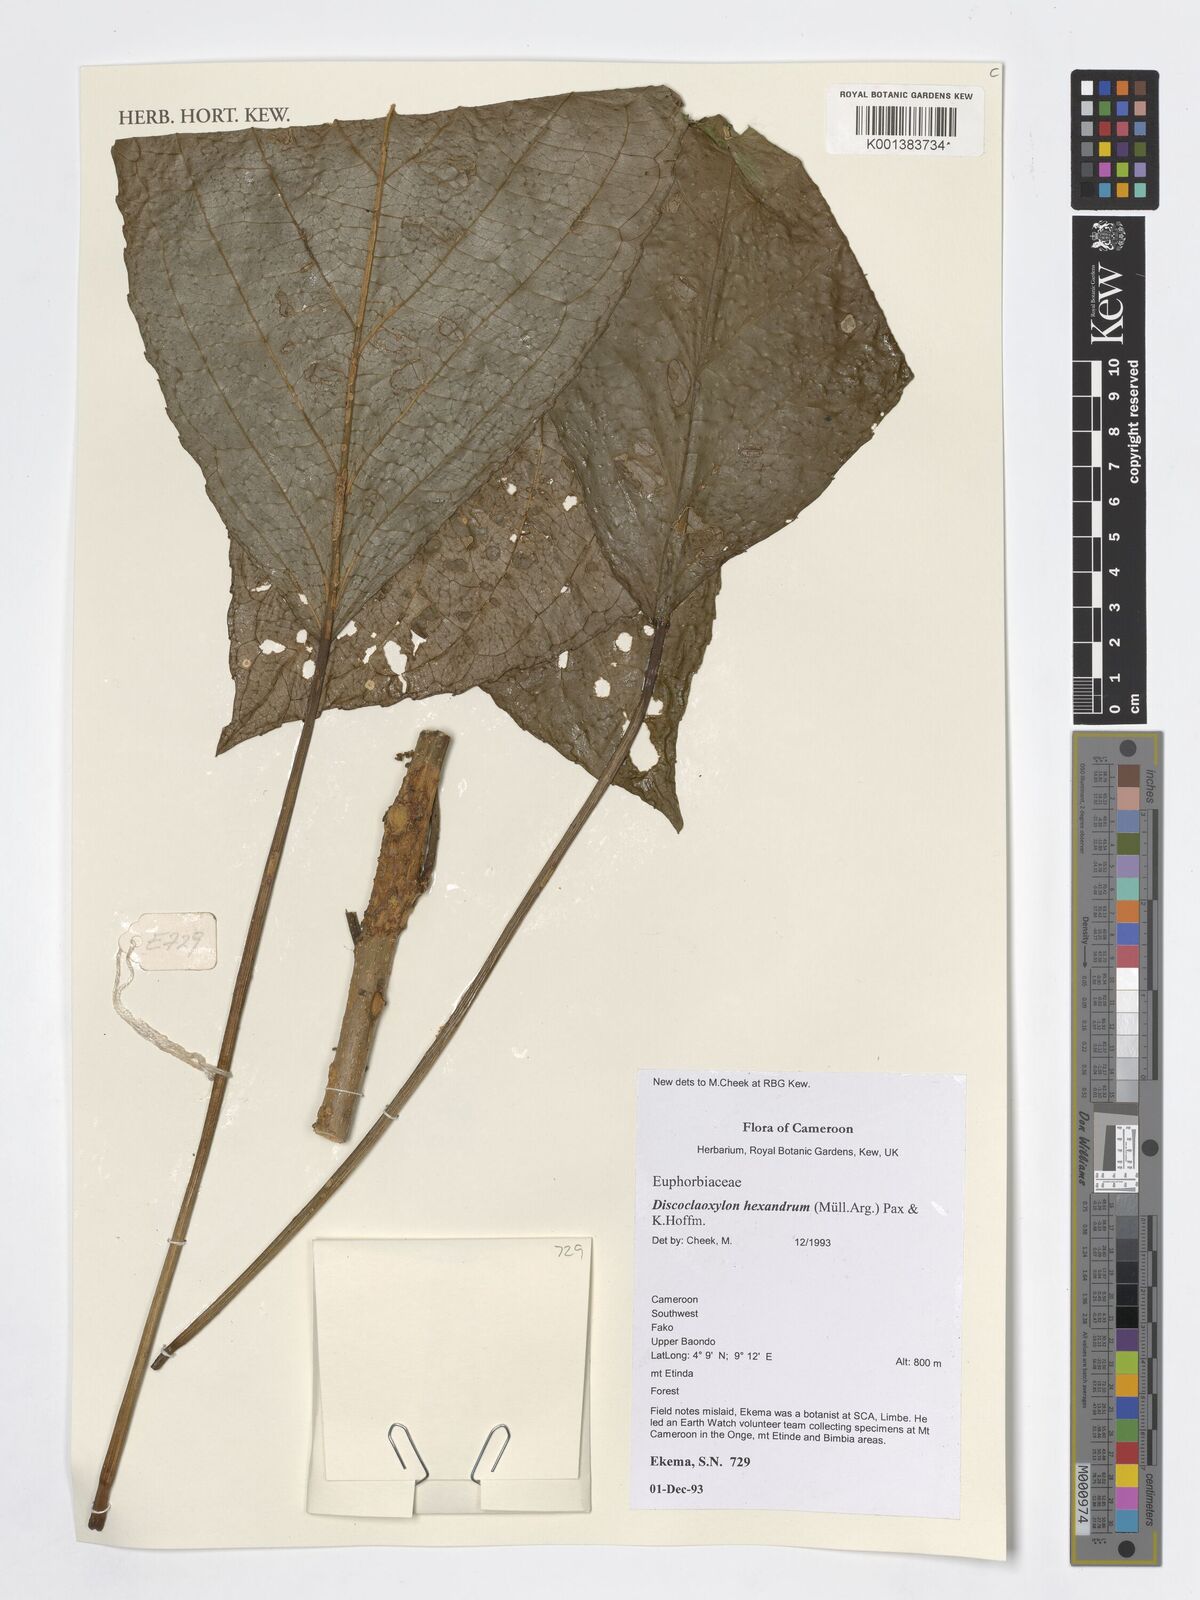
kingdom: Plantae
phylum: Tracheophyta
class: Magnoliopsida
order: Malpighiales
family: Euphorbiaceae
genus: Discoclaoxylon
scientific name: Discoclaoxylon hexandrum
